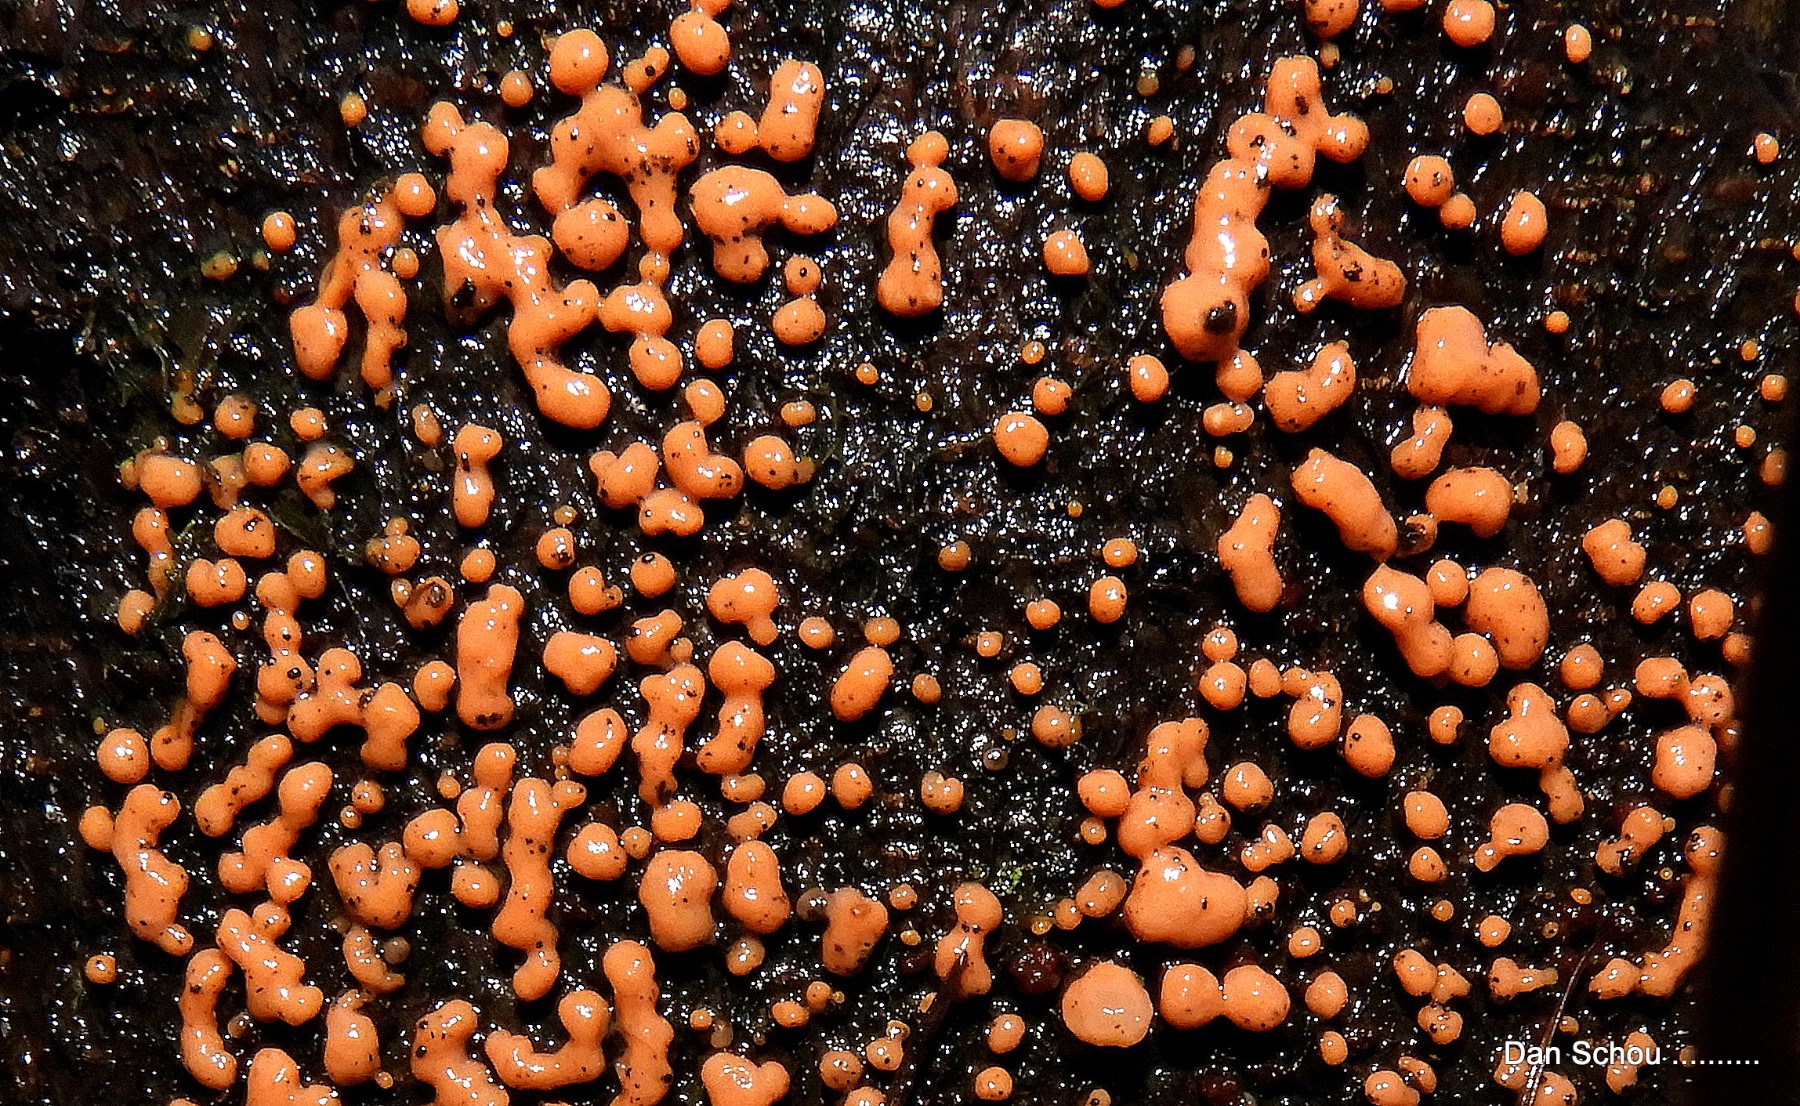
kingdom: Fungi
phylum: Basidiomycota
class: Dacrymycetes
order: Dacrymycetales
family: Dacrymycetaceae
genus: Dacrymyces
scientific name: Dacrymyces stillatus
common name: almindelig tåresvamp
